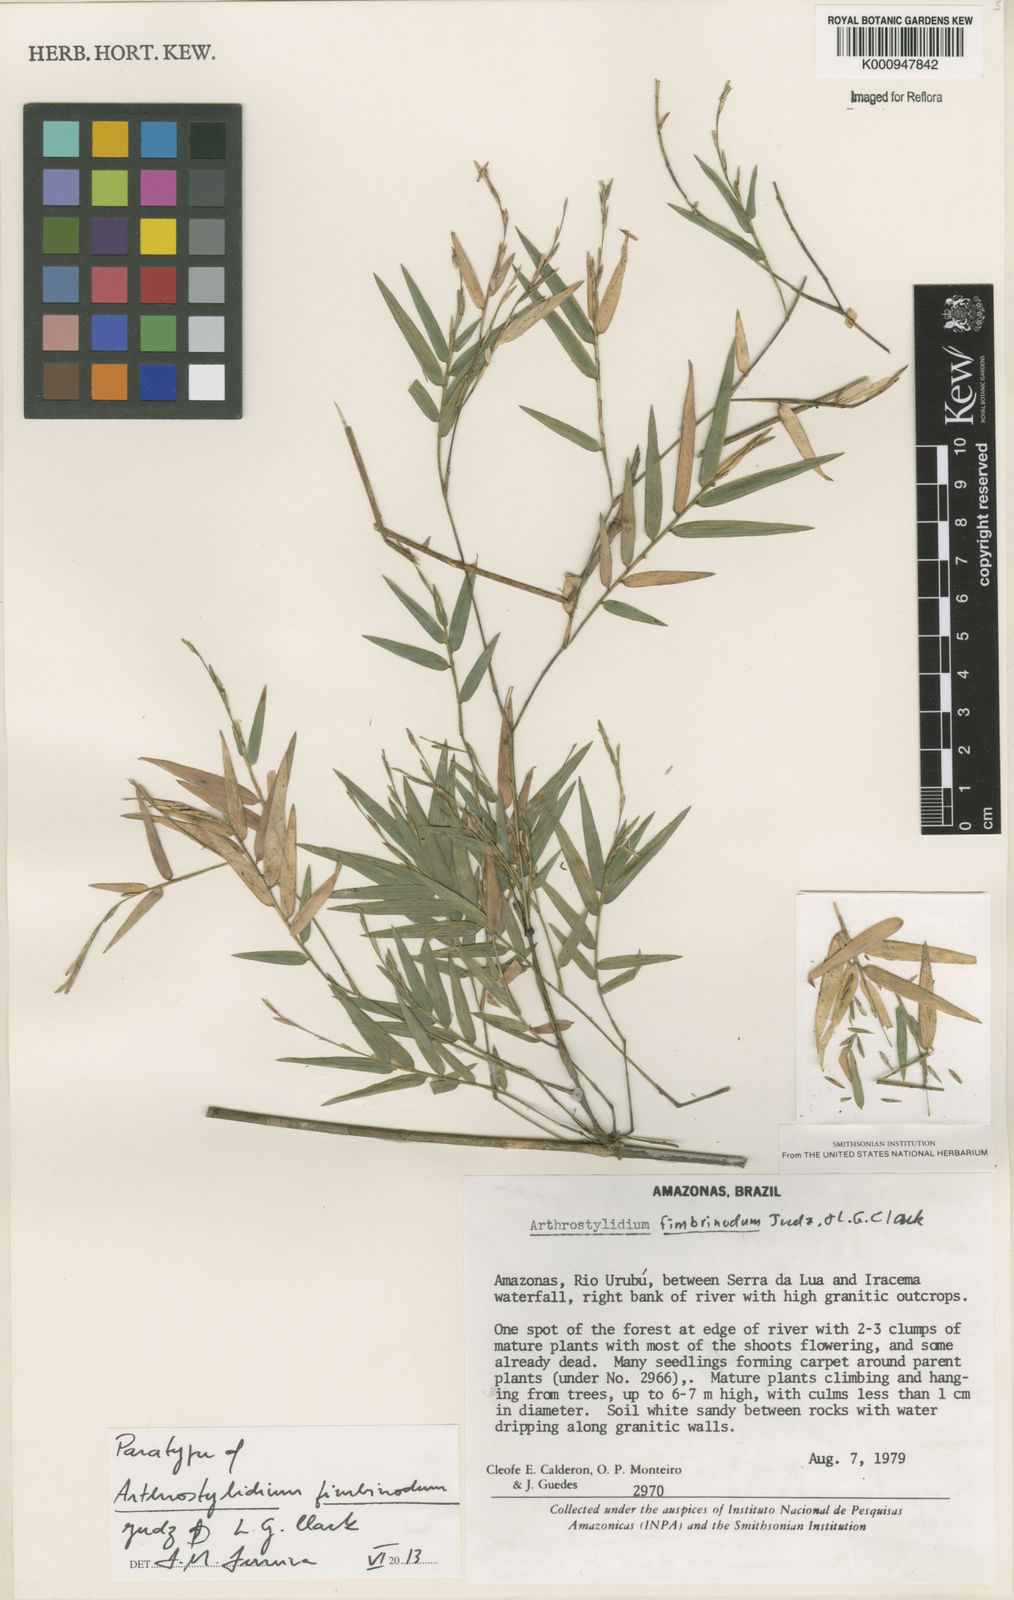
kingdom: Plantae
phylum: Tracheophyta
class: Liliopsida
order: Poales
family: Poaceae
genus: Arthrostylidium
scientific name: Arthrostylidium fimbrinodum
